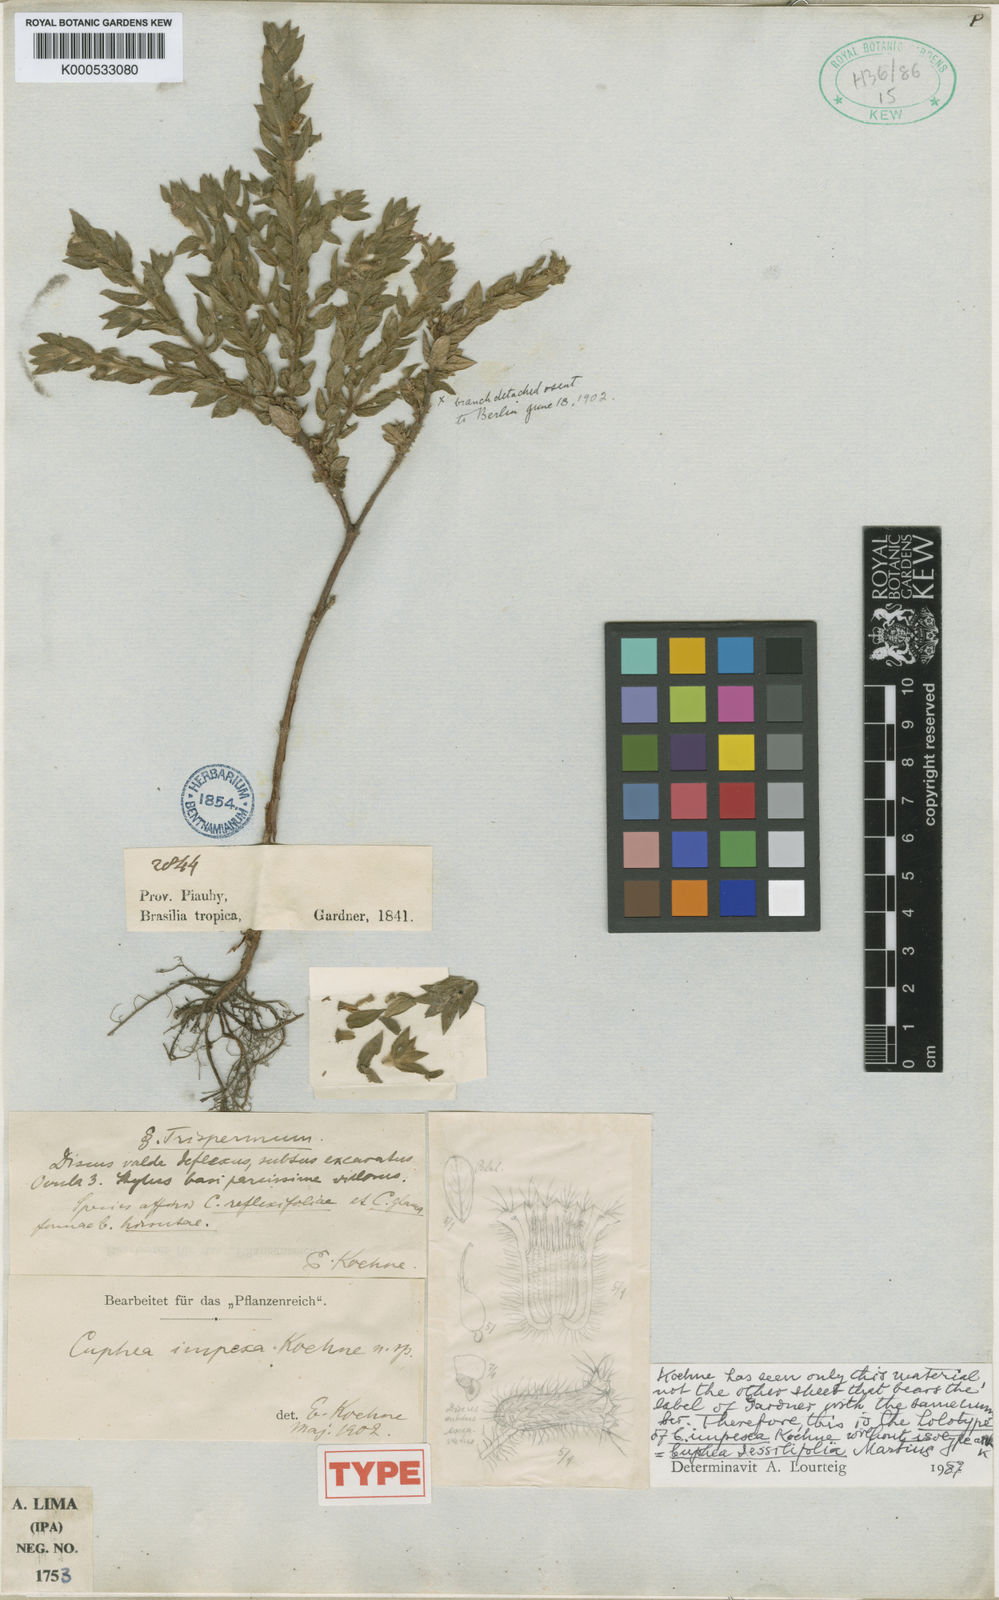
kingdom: Plantae
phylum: Tracheophyta
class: Magnoliopsida
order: Myrtales
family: Lythraceae
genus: Cuphea
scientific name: Cuphea sessilifolia
